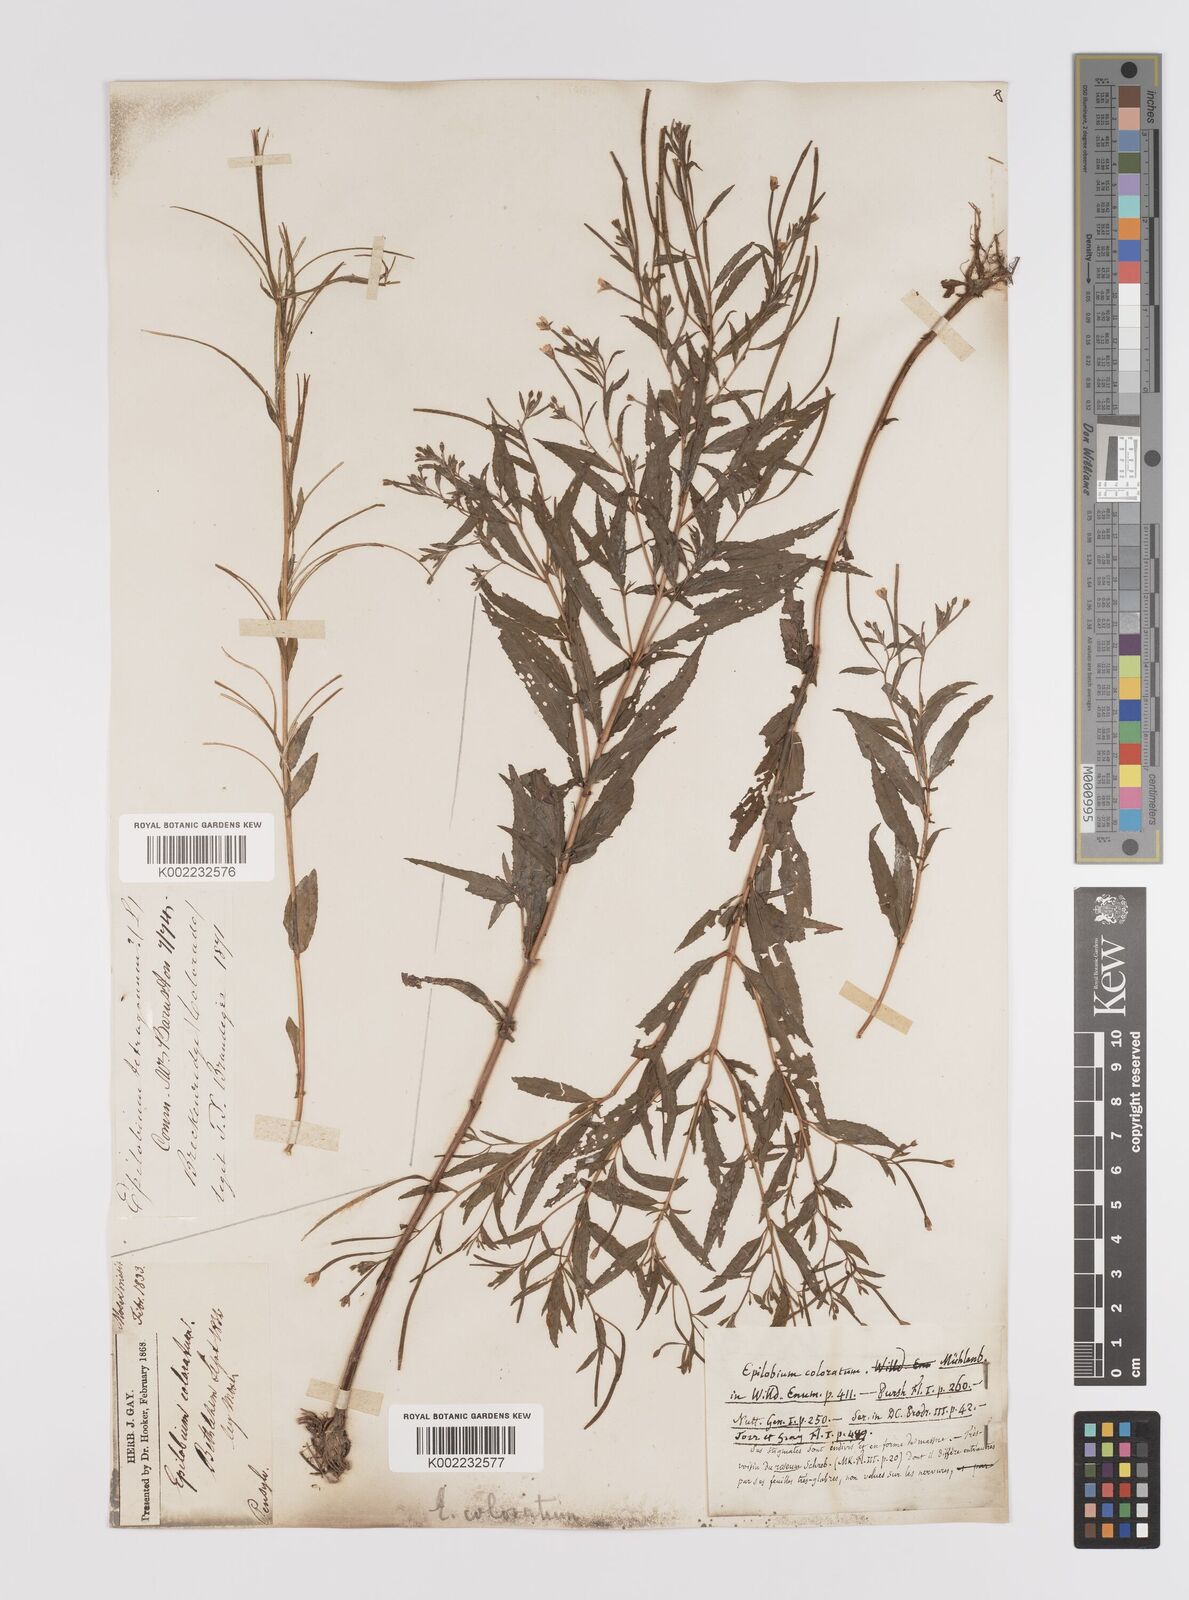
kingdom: Plantae
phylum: Tracheophyta
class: Magnoliopsida
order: Myrtales
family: Onagraceae
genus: Epilobium
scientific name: Epilobium coloratum
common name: Bronze willowherb
